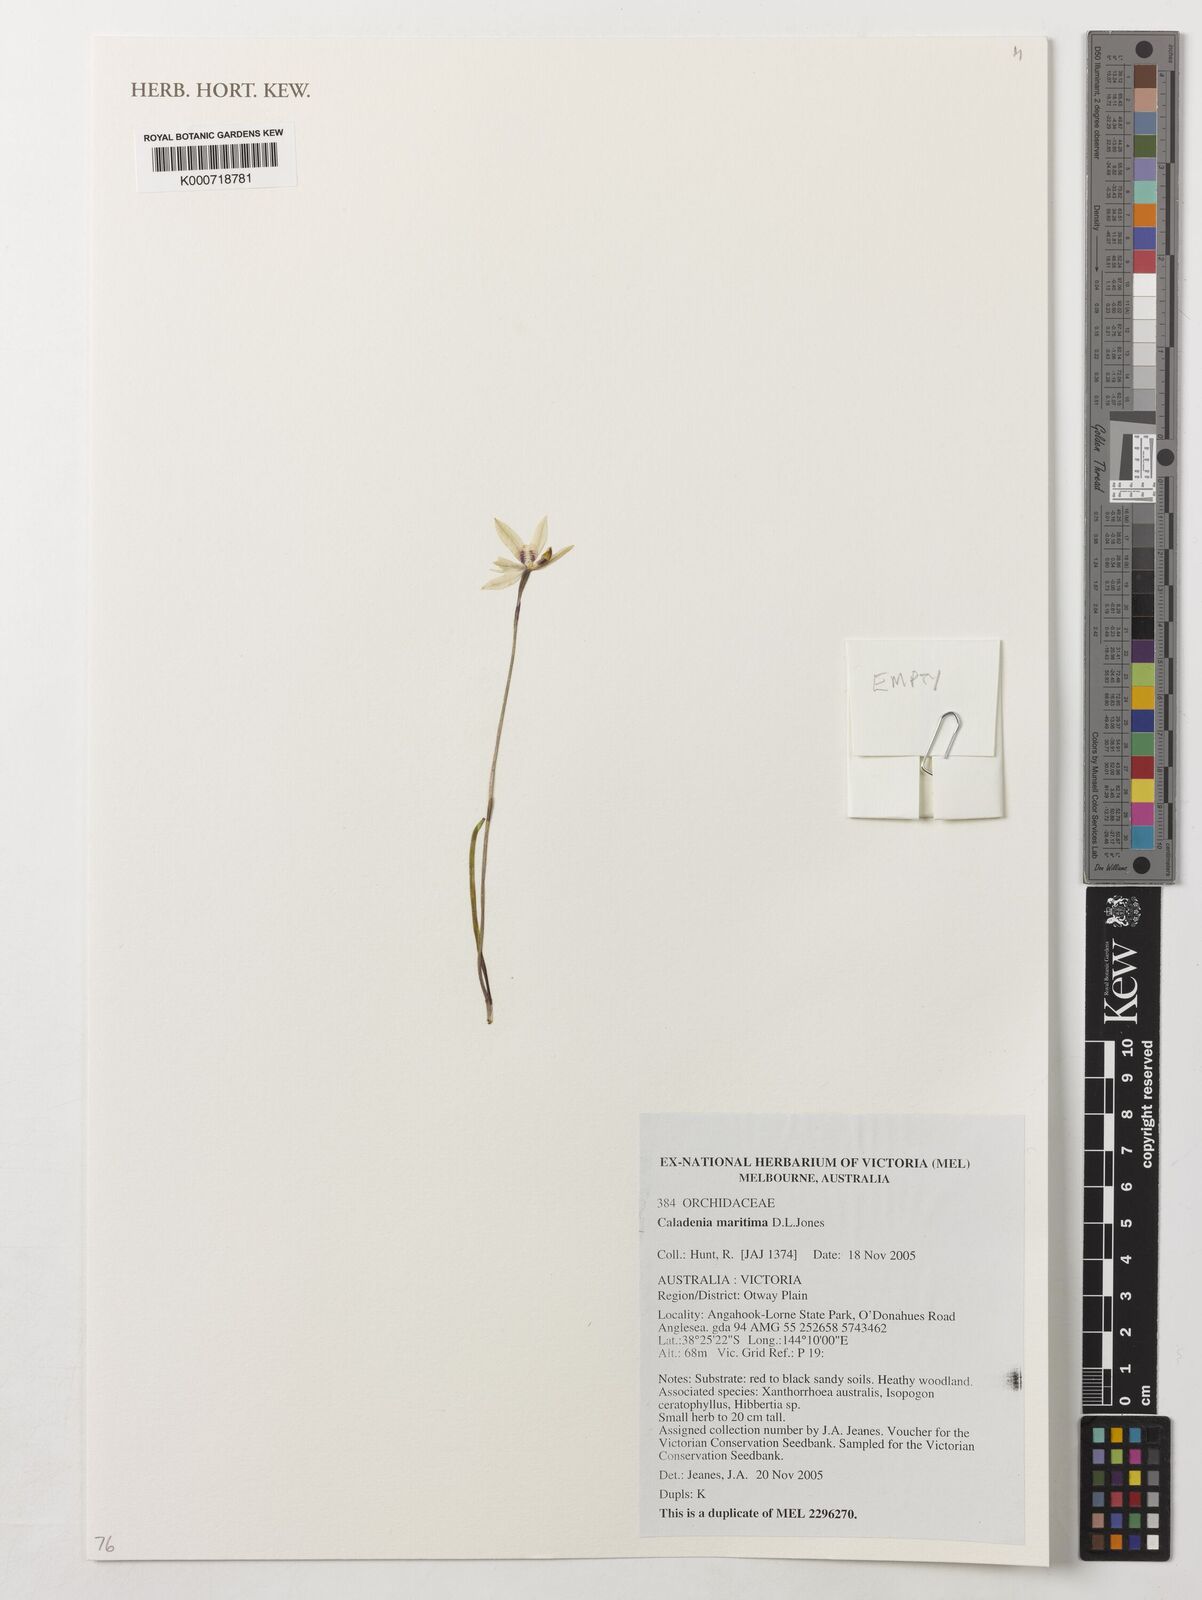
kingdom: Plantae
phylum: Tracheophyta
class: Liliopsida
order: Asparagales
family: Orchidaceae
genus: Caladenia
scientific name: Caladenia maritima
